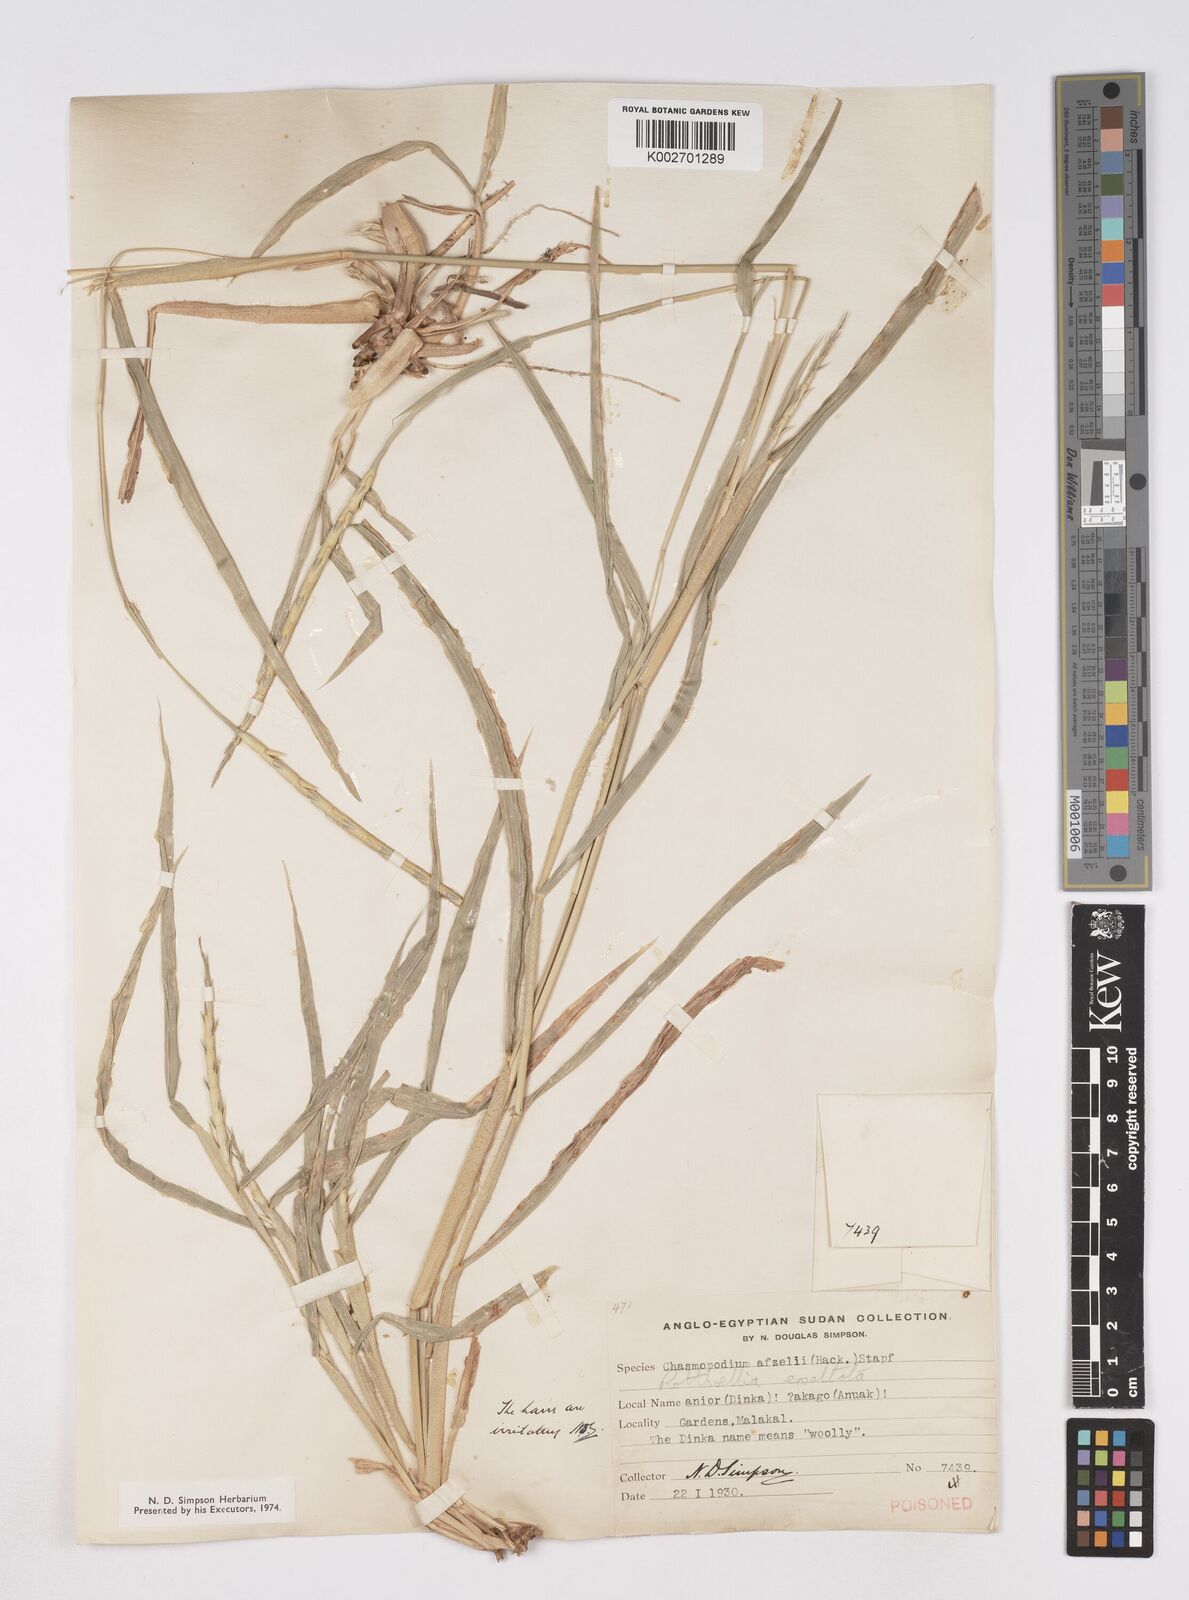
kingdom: Plantae
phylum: Tracheophyta
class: Liliopsida
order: Poales
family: Poaceae
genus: Rottboellia
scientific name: Rottboellia cochinchinensis
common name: Itchgrass
